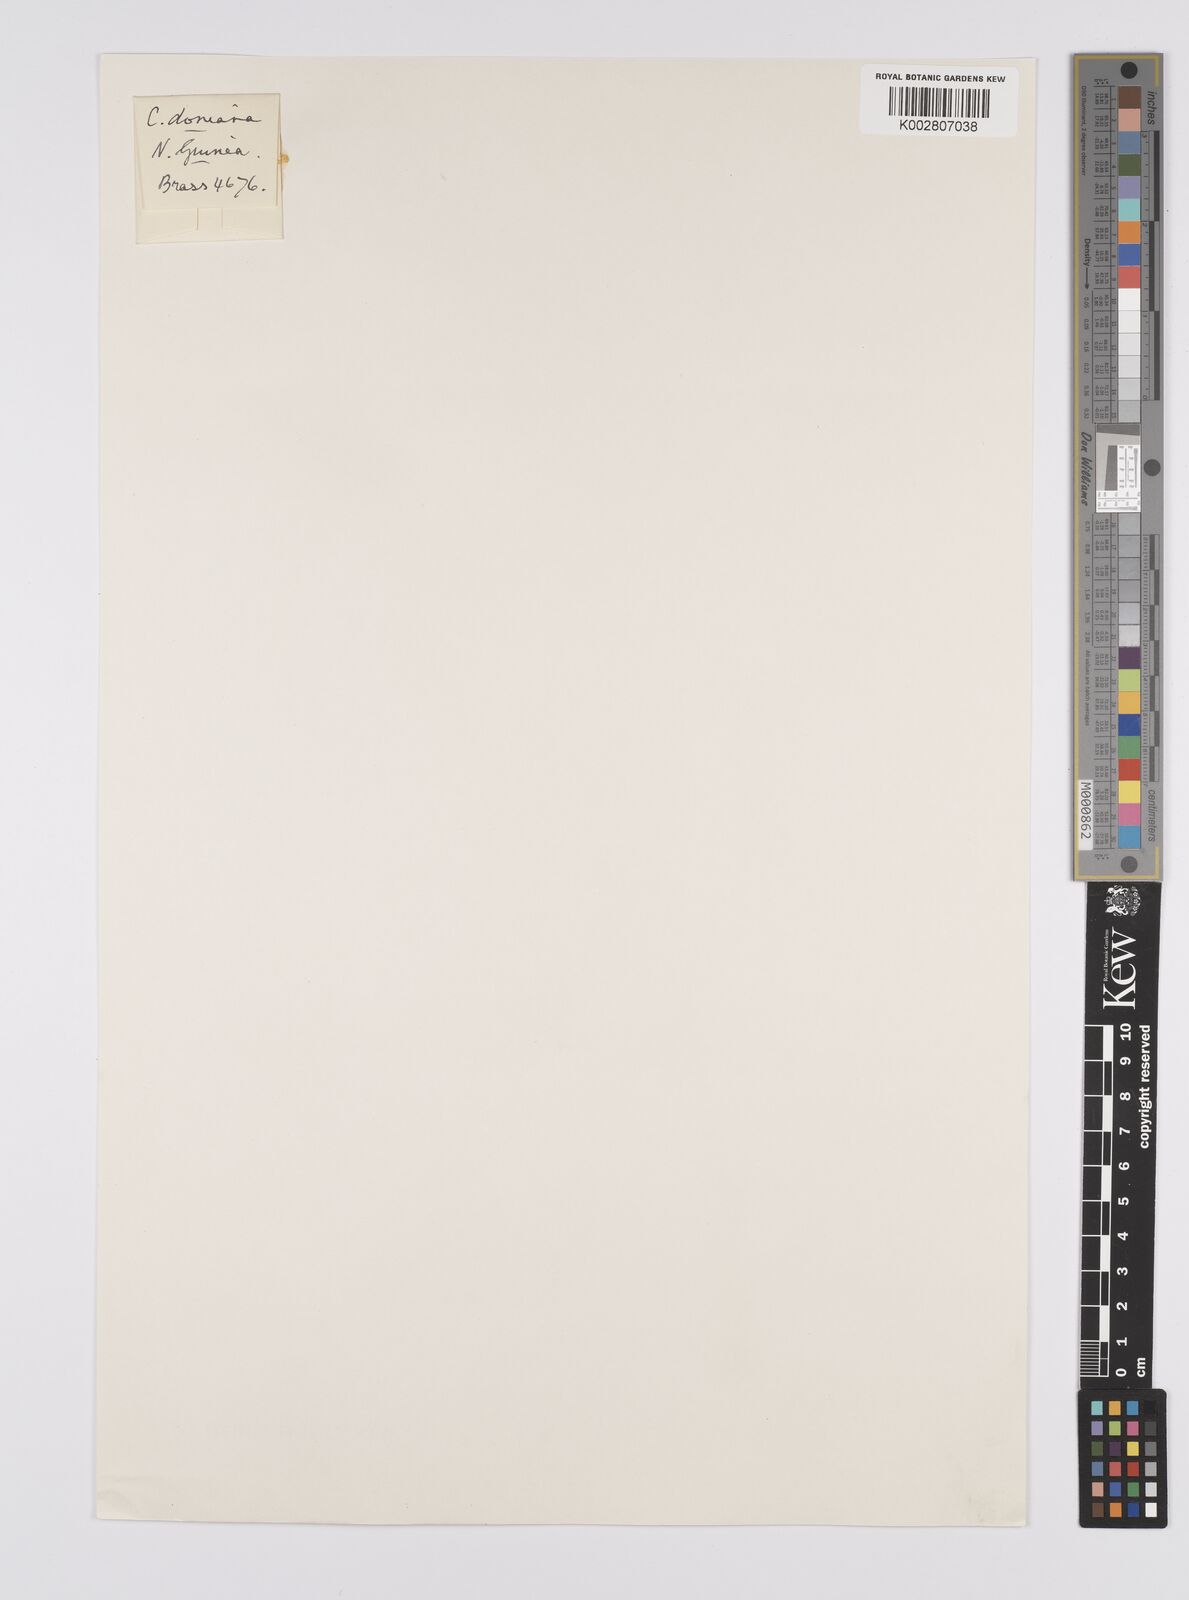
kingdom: Plantae
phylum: Tracheophyta
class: Liliopsida
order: Poales
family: Cyperaceae
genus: Carex
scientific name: Carex alopecuroides
